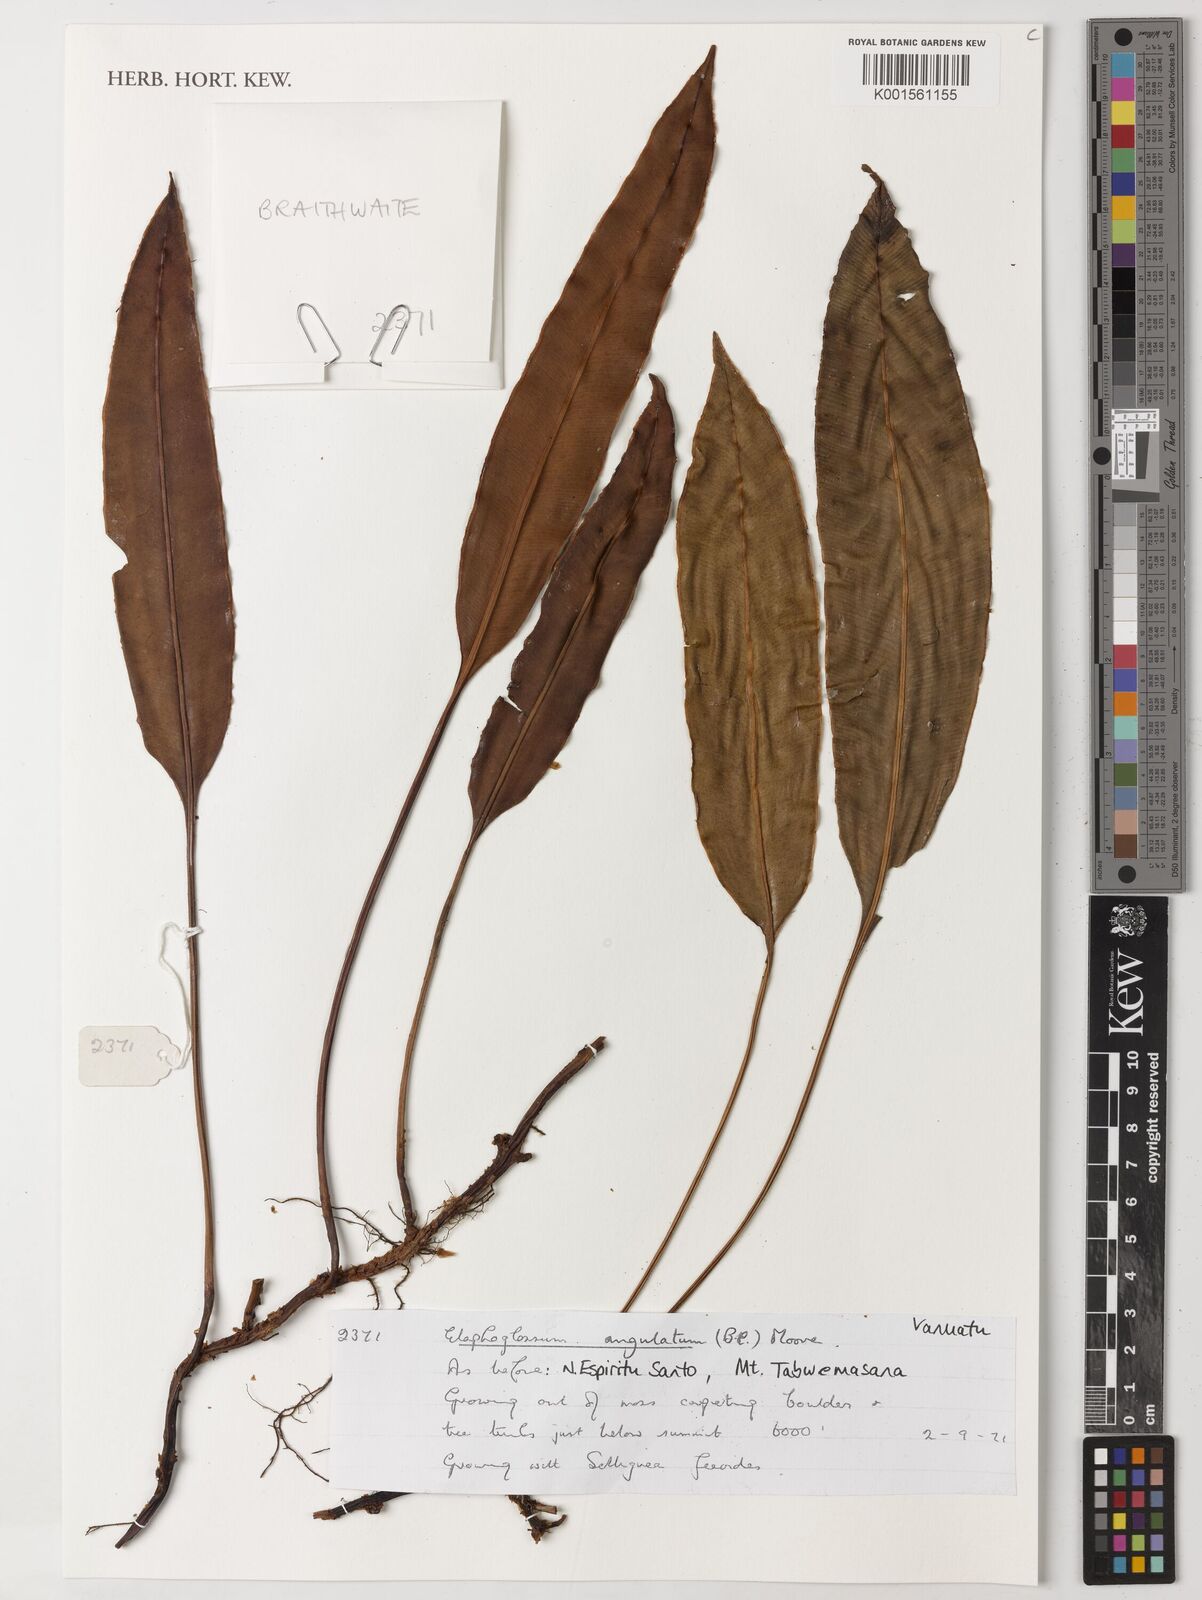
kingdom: Plantae
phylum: Tracheophyta
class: Polypodiopsida
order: Polypodiales
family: Dryopteridaceae
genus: Elaphoglossum
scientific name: Elaphoglossum angulatum
